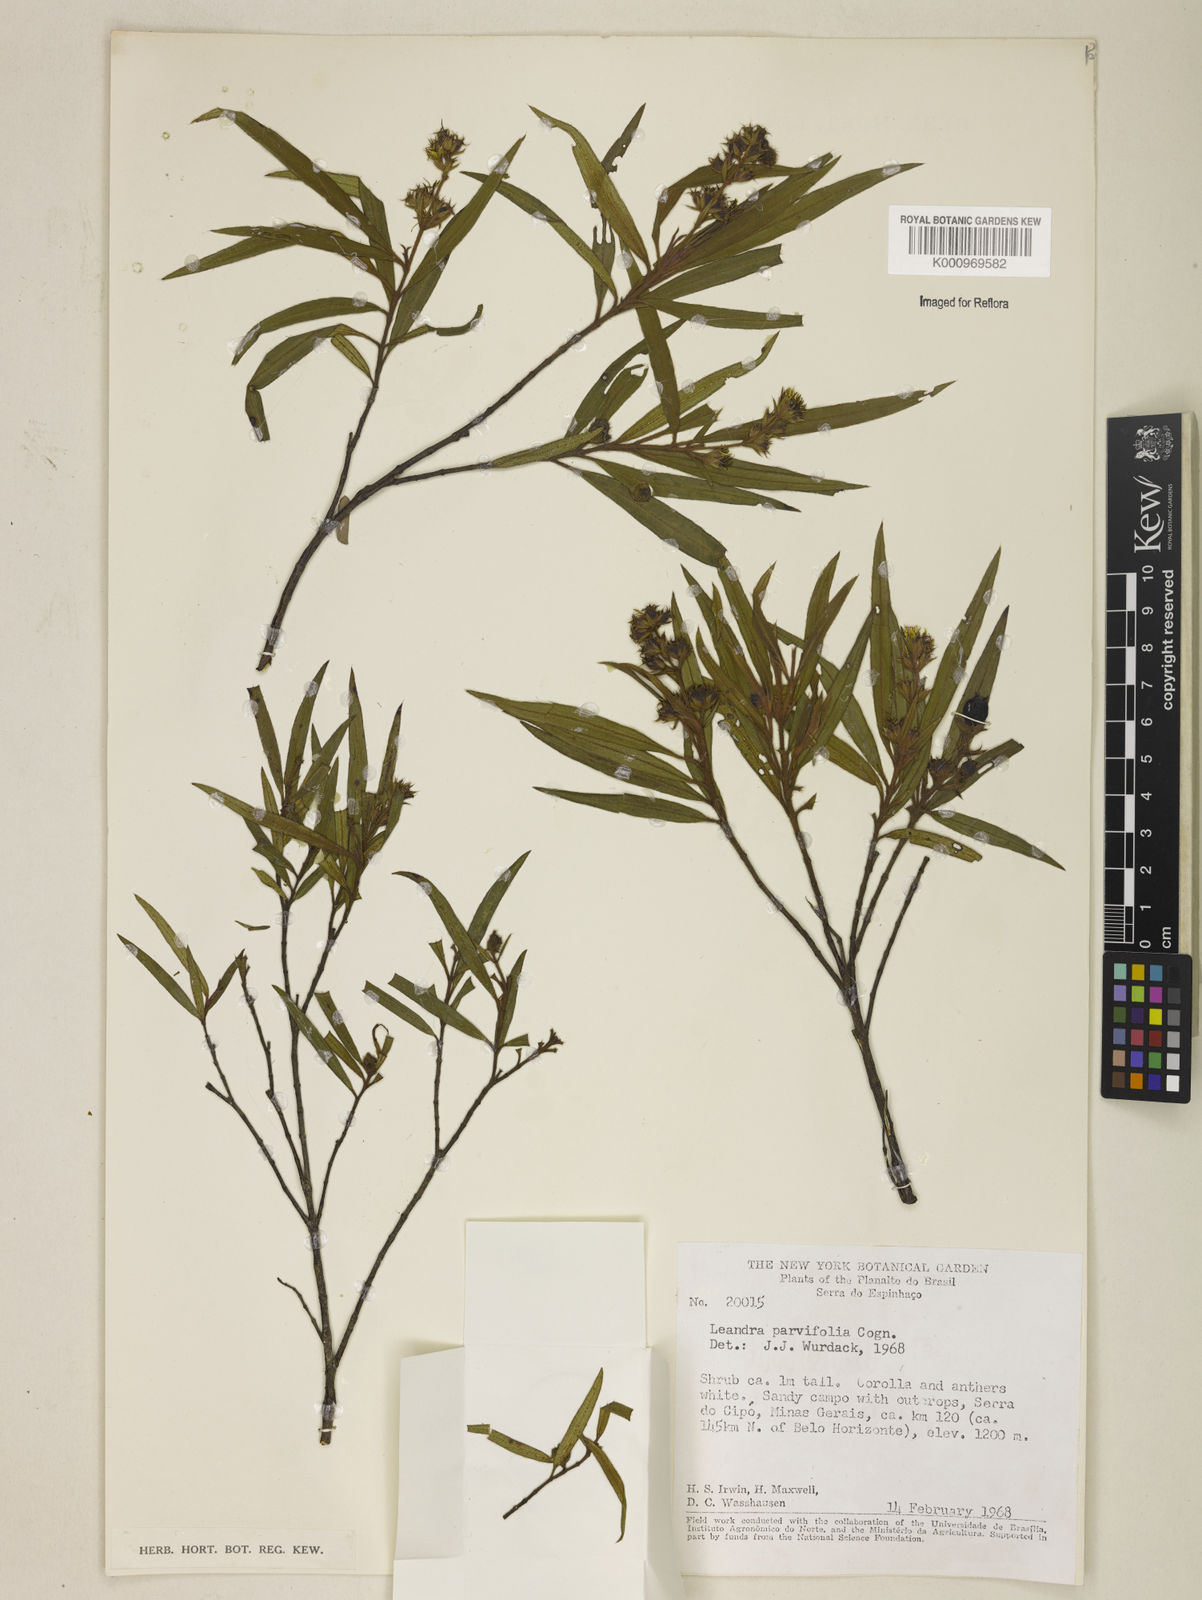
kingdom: Plantae
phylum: Tracheophyta
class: Magnoliopsida
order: Myrtales
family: Melastomataceae
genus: Miconia
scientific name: Miconia salicina
